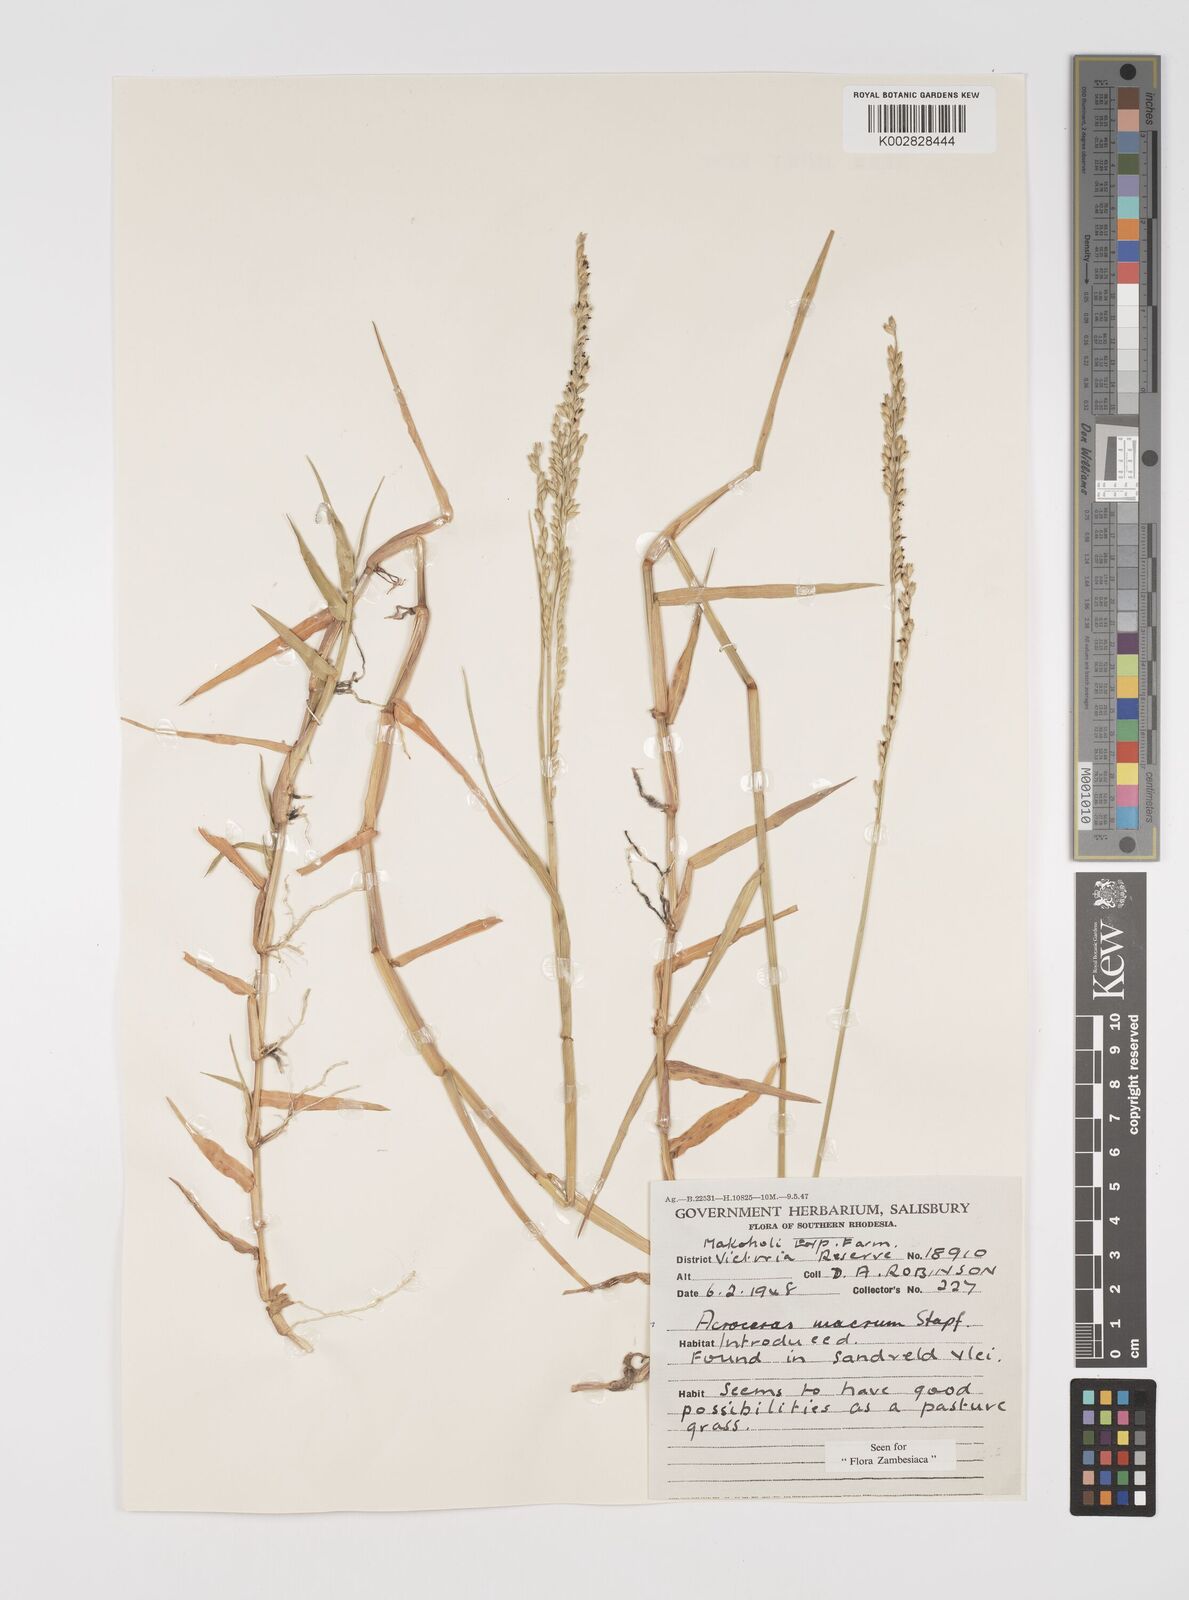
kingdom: Plantae
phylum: Tracheophyta
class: Liliopsida
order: Poales
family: Poaceae
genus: Acroceras
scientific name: Acroceras macrum
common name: Nyl grass
